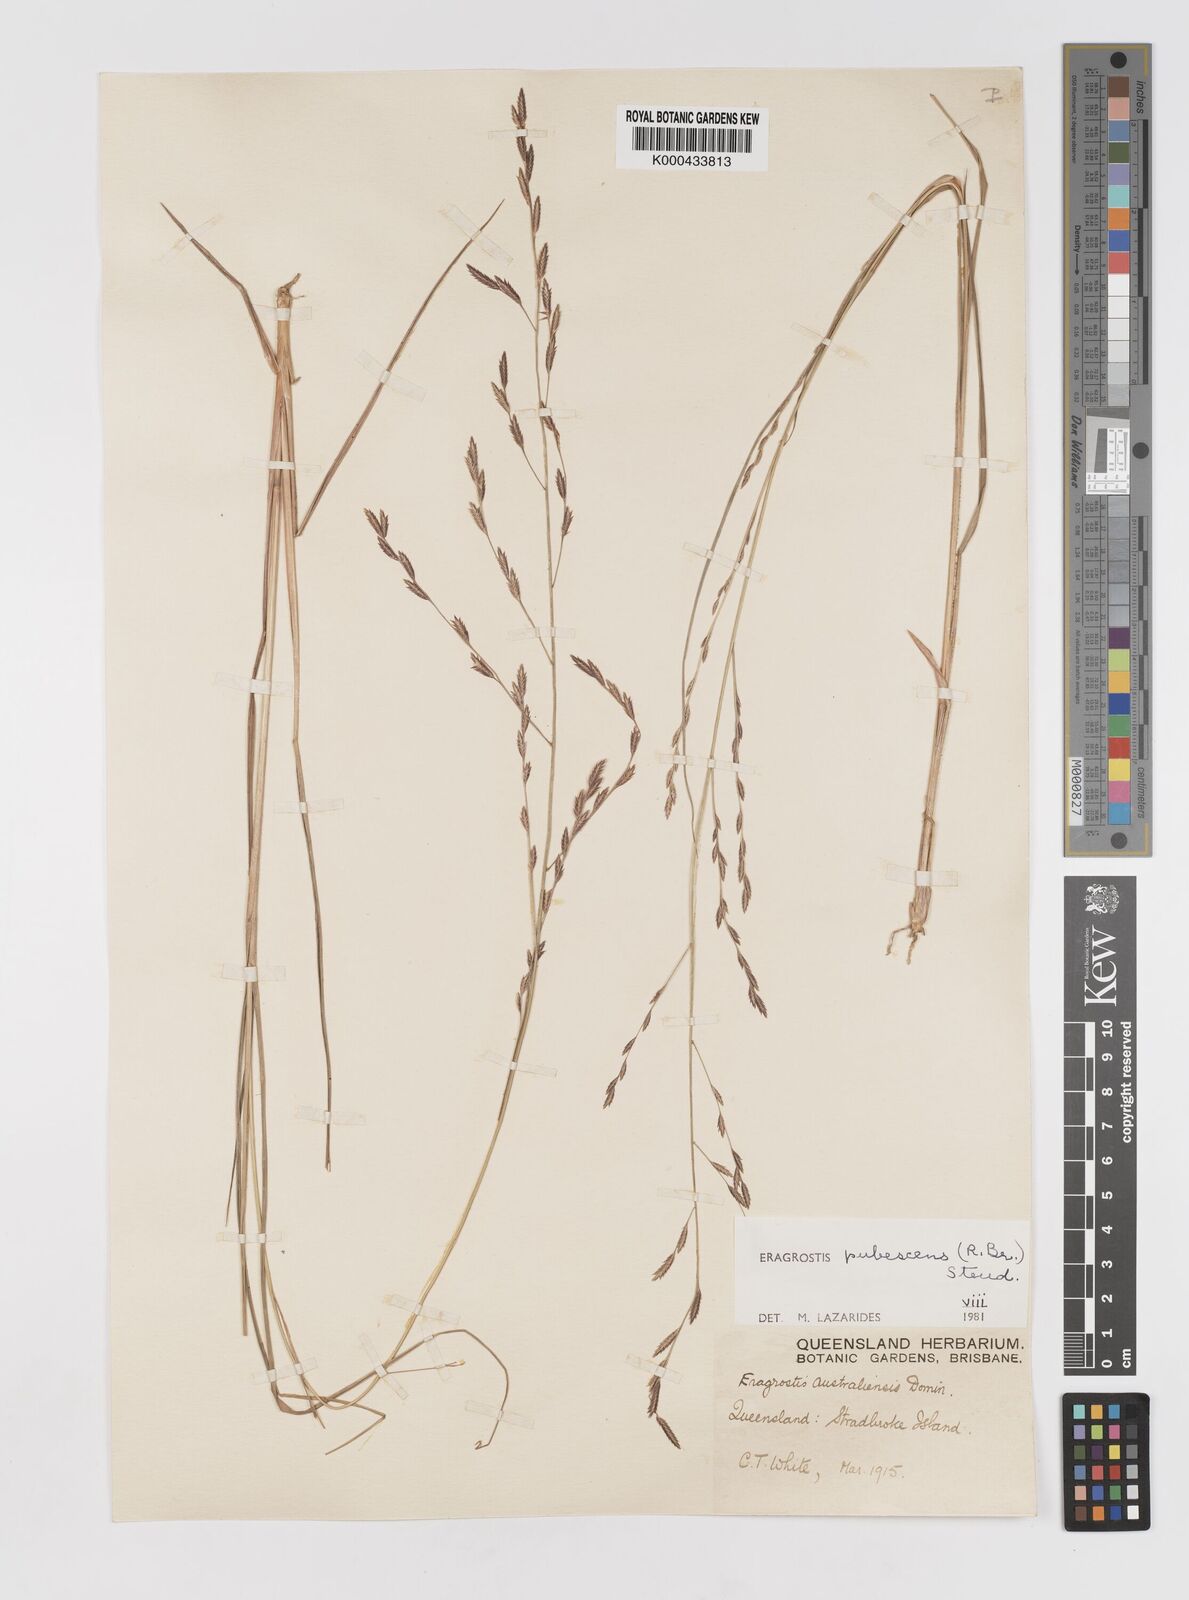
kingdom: Plantae
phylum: Tracheophyta
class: Liliopsida
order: Poales
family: Poaceae
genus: Eragrostis
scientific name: Eragrostis pubescens
